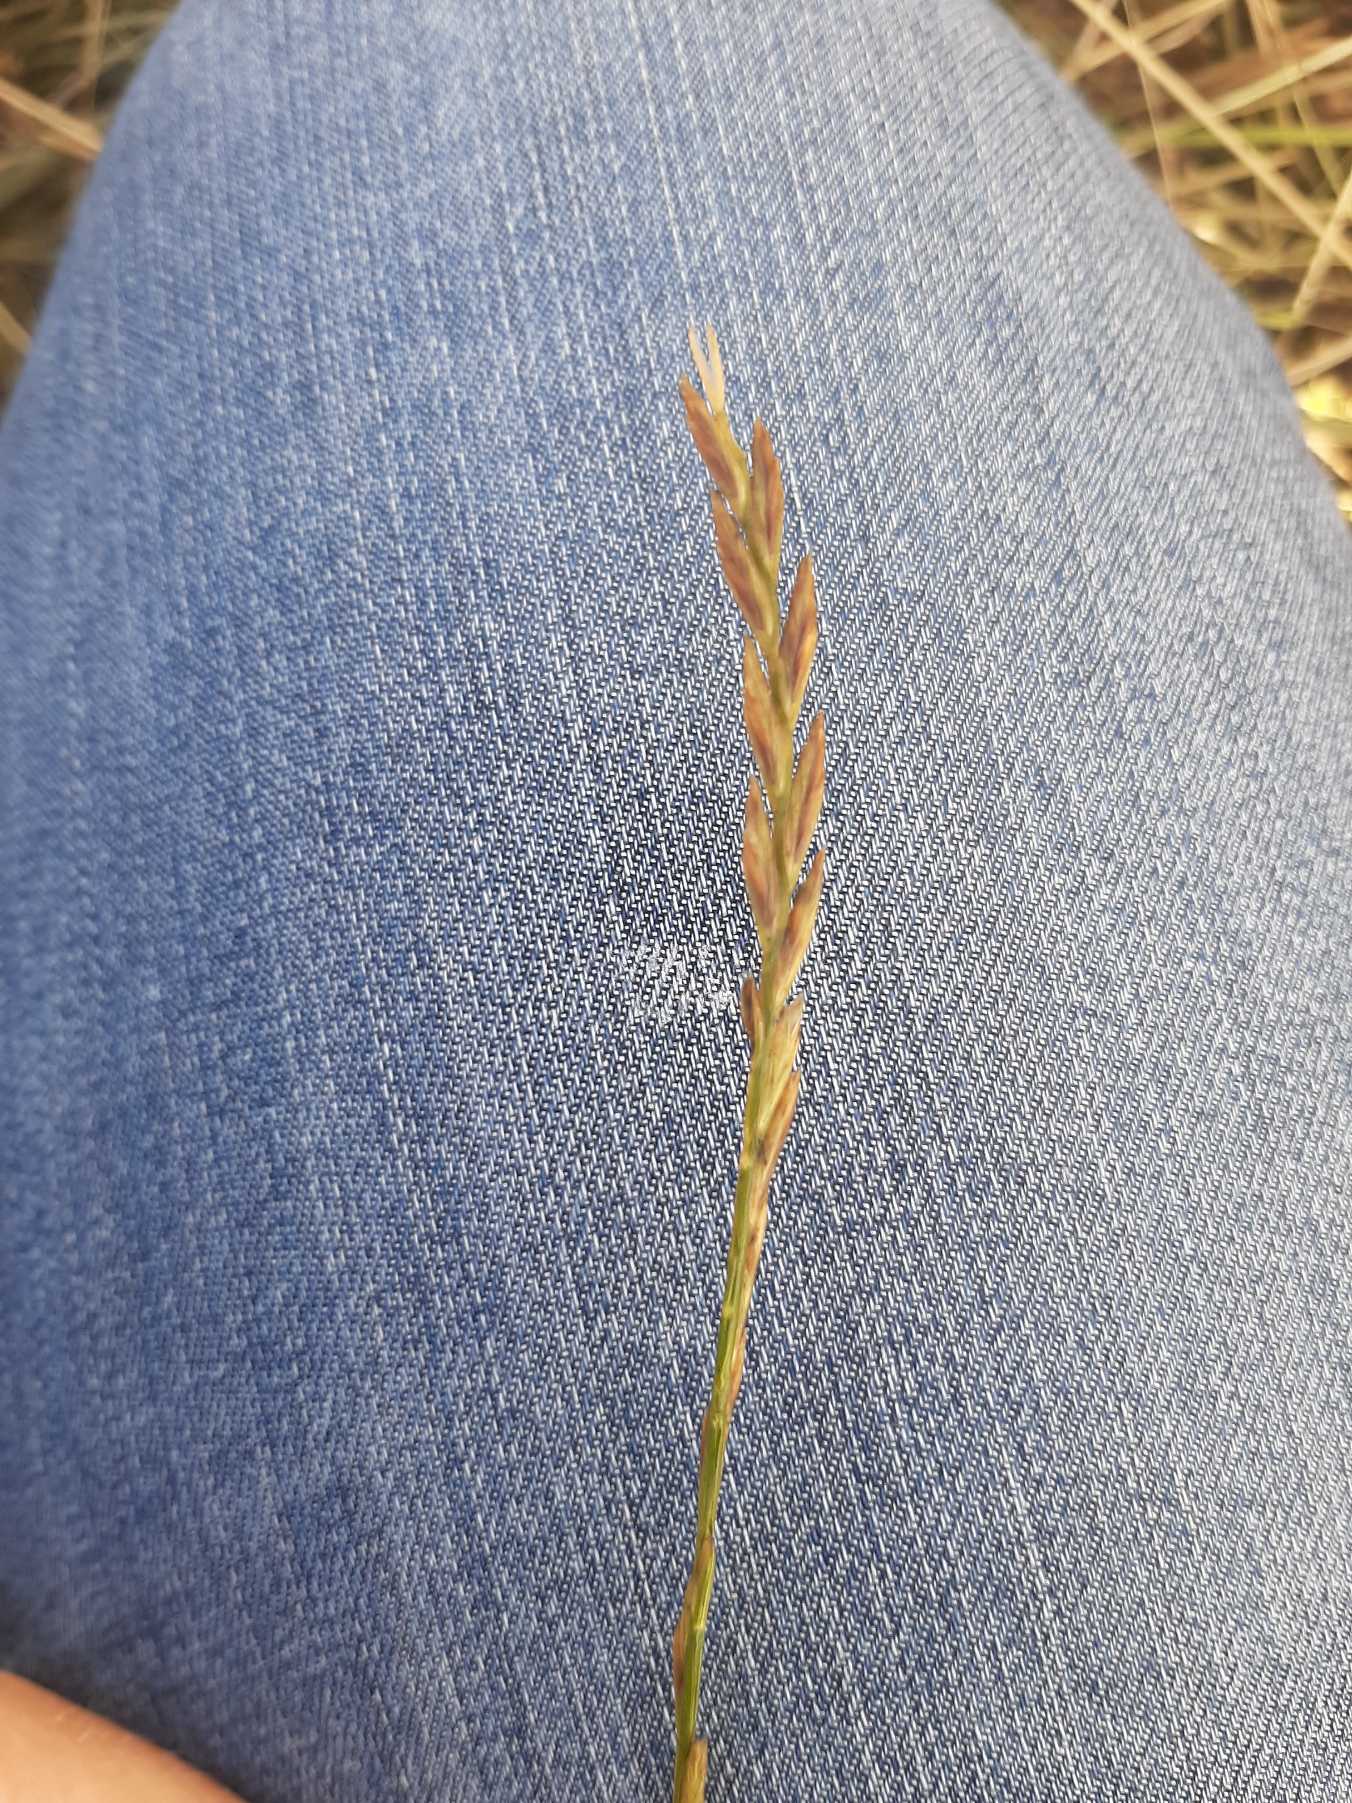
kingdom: Plantae
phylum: Tracheophyta
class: Liliopsida
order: Poales
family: Poaceae
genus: Lolium
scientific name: Lolium perenne
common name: Almindelig rajgræs
